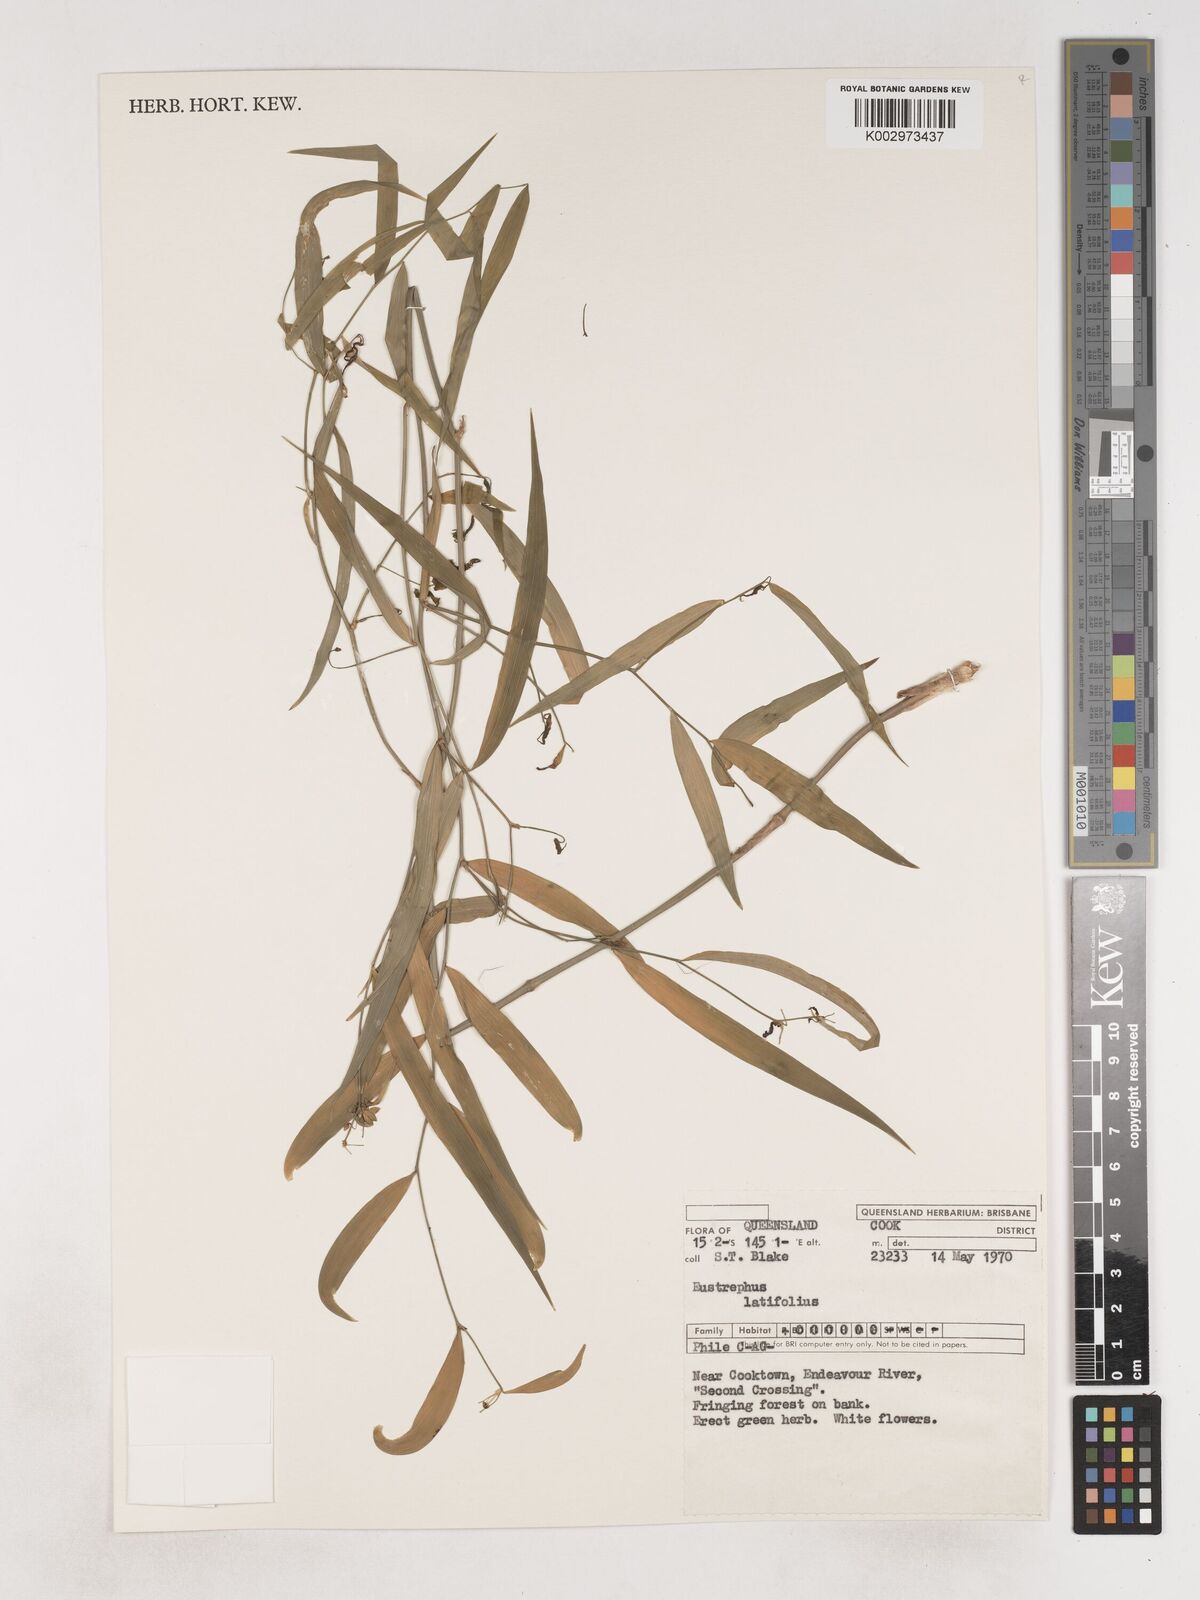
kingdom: Plantae
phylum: Tracheophyta
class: Liliopsida
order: Asparagales
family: Asparagaceae
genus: Eustrephus
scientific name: Eustrephus latifolius
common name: Orangevine
